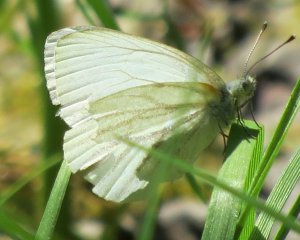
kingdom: Animalia
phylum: Arthropoda
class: Insecta
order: Lepidoptera
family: Pieridae
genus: Pieris
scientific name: Pieris oleracea
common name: Mustard White
